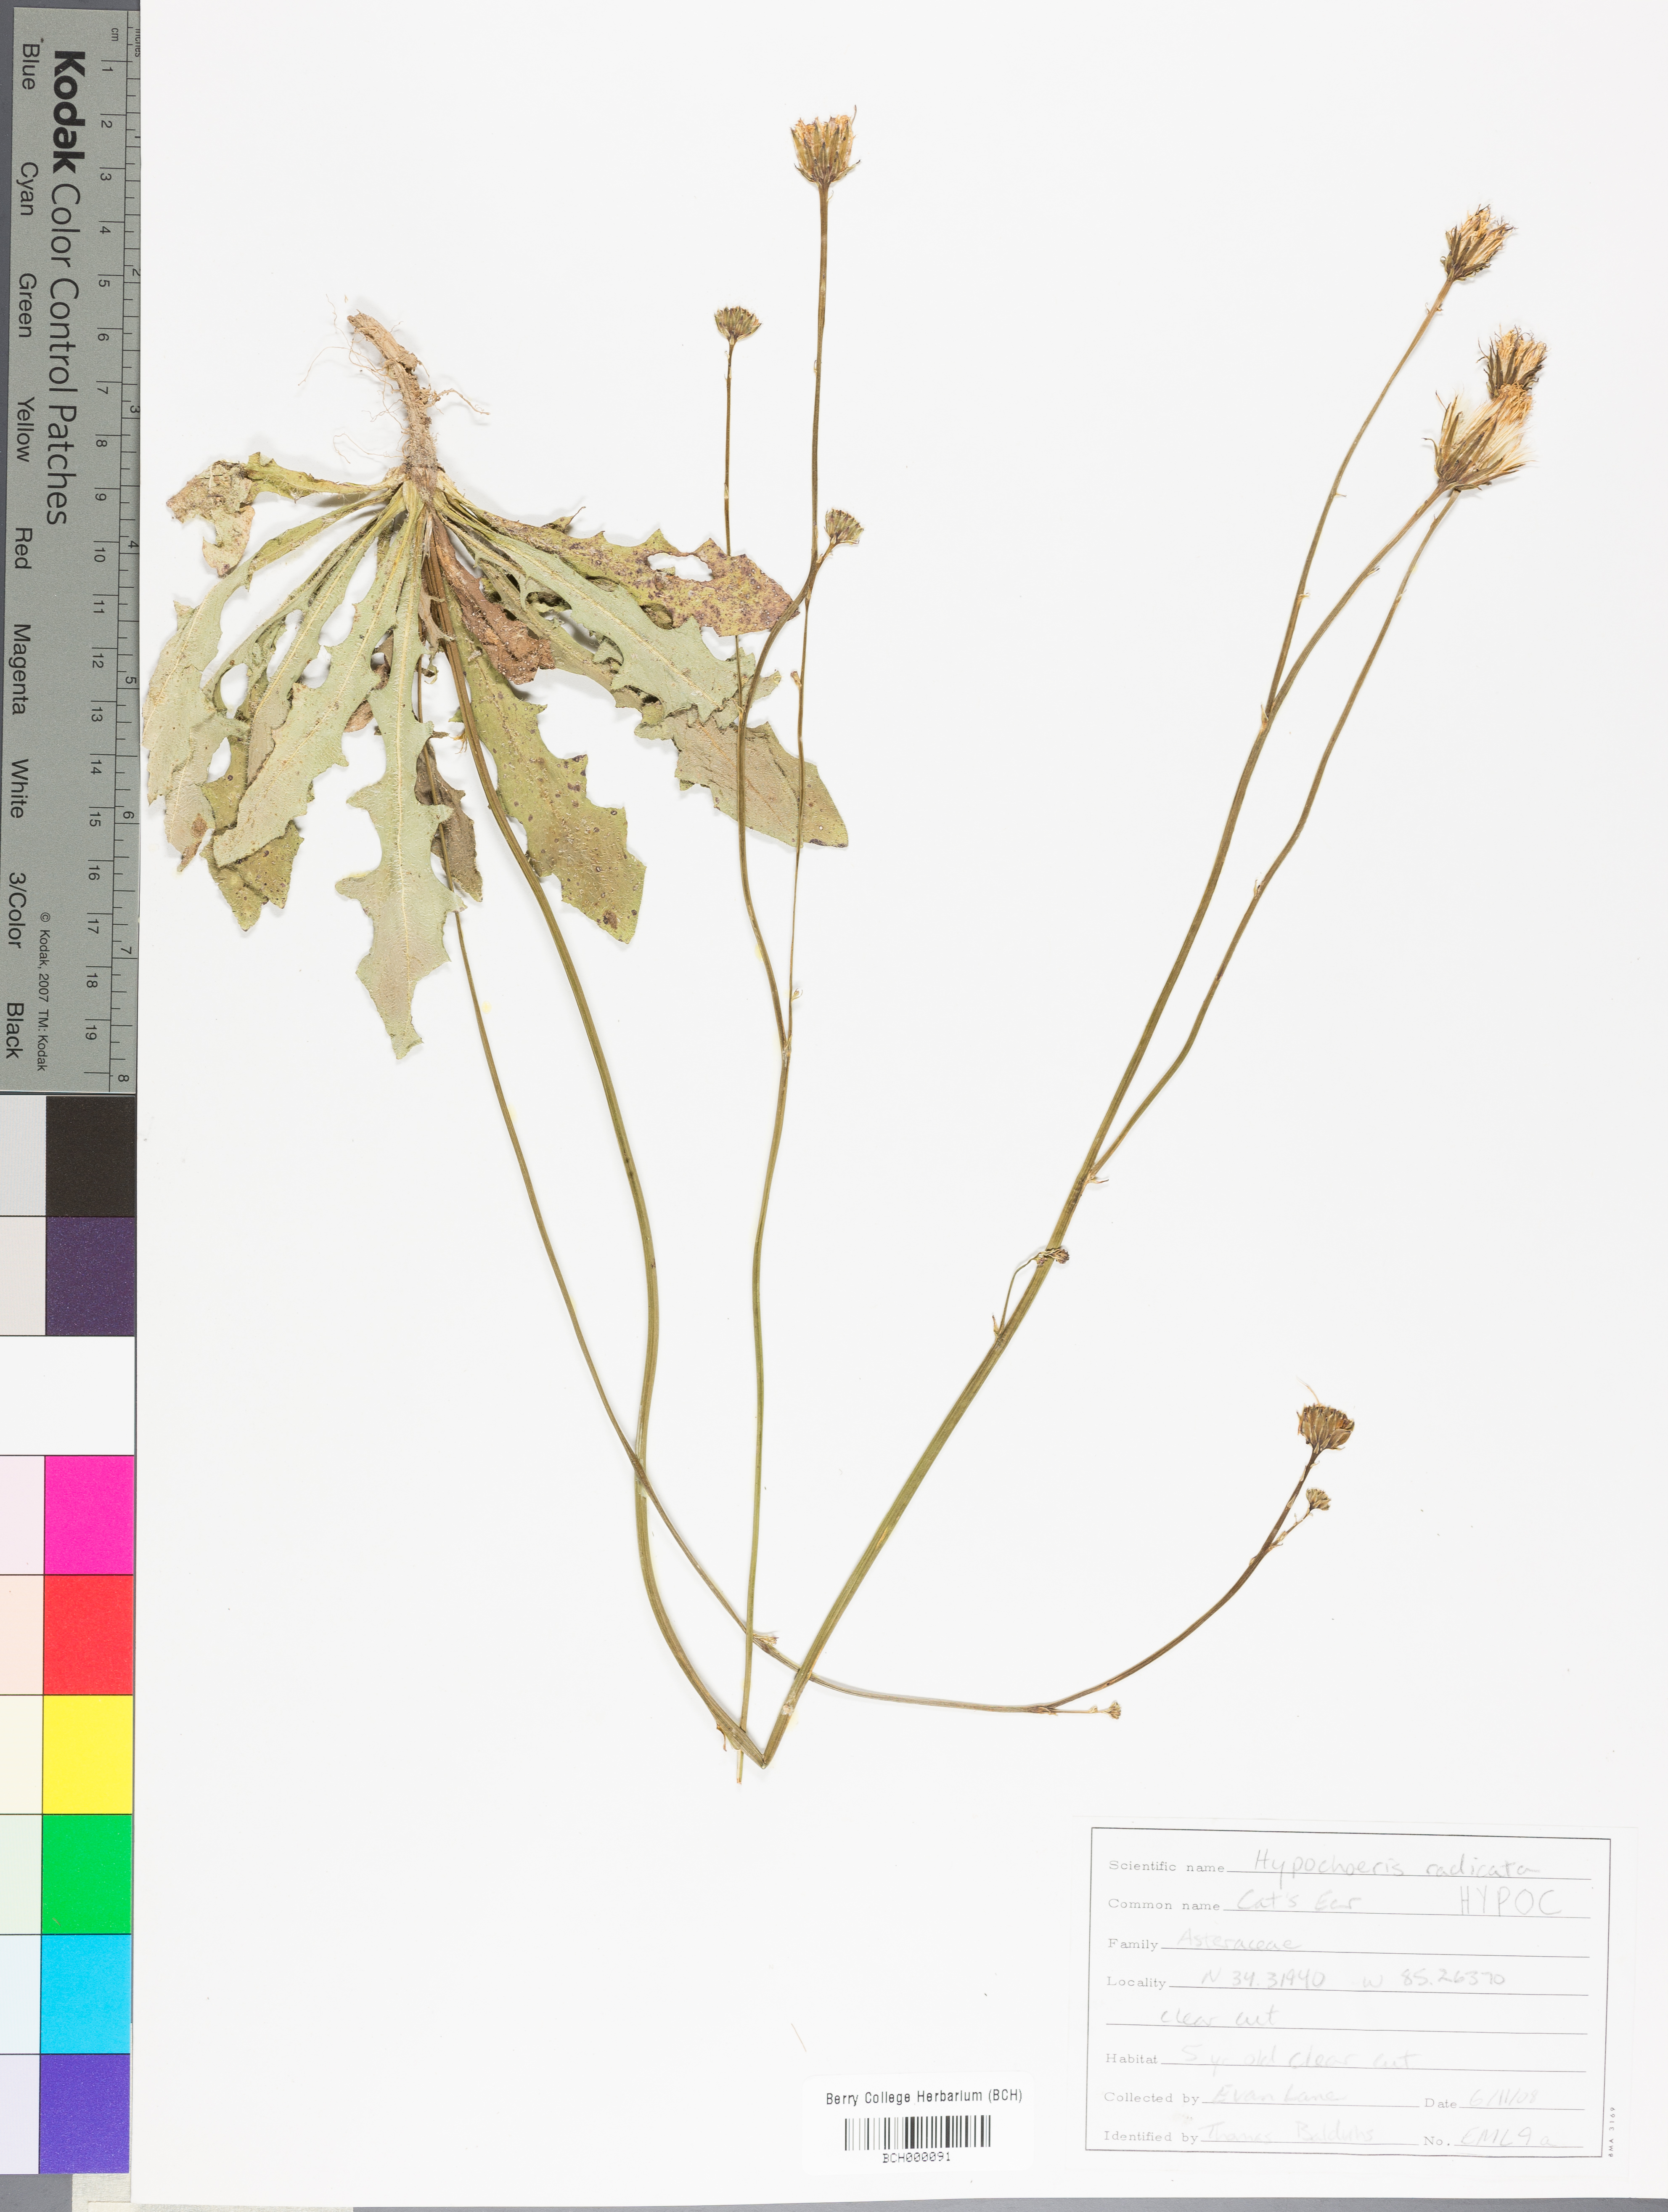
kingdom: Plantae
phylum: Tracheophyta
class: Magnoliopsida
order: Asterales
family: Asteraceae
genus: Hypochaeris
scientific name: Hypochaeris
